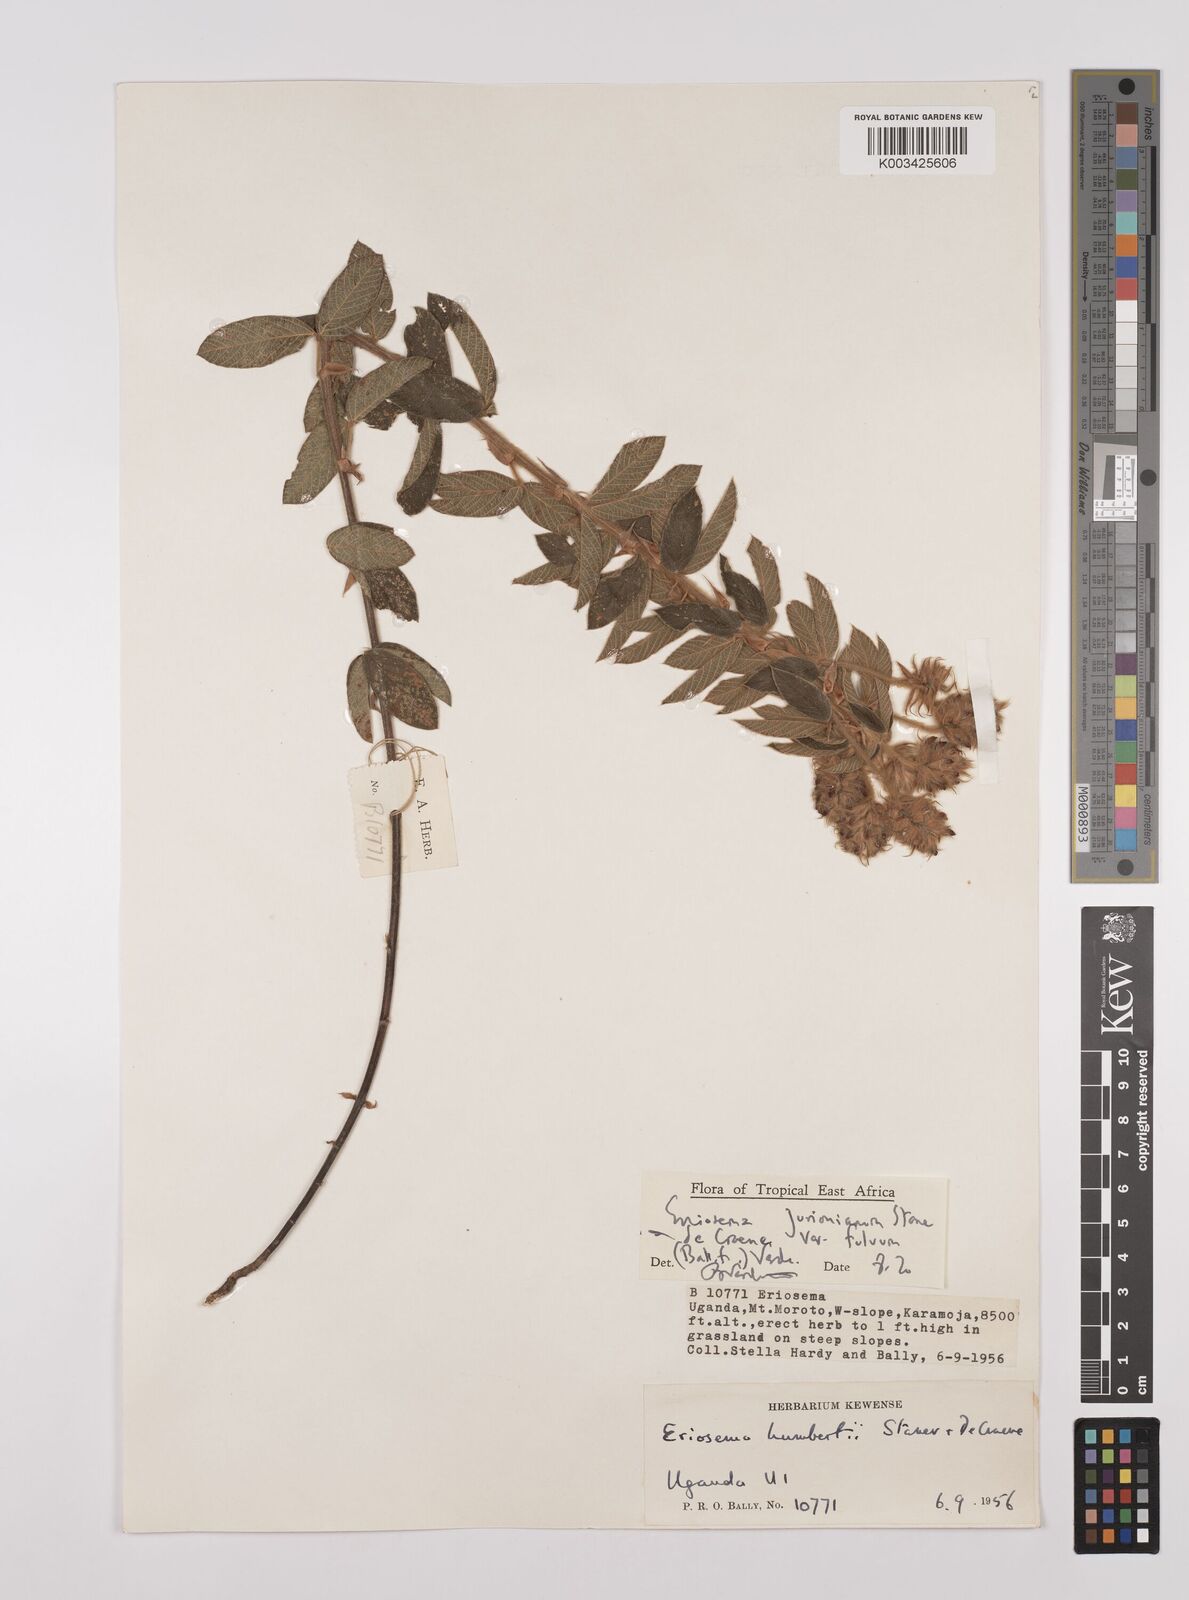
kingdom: Plantae
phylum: Tracheophyta
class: Magnoliopsida
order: Fabales
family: Fabaceae
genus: Eriosema
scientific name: Eriosema jurionianum
